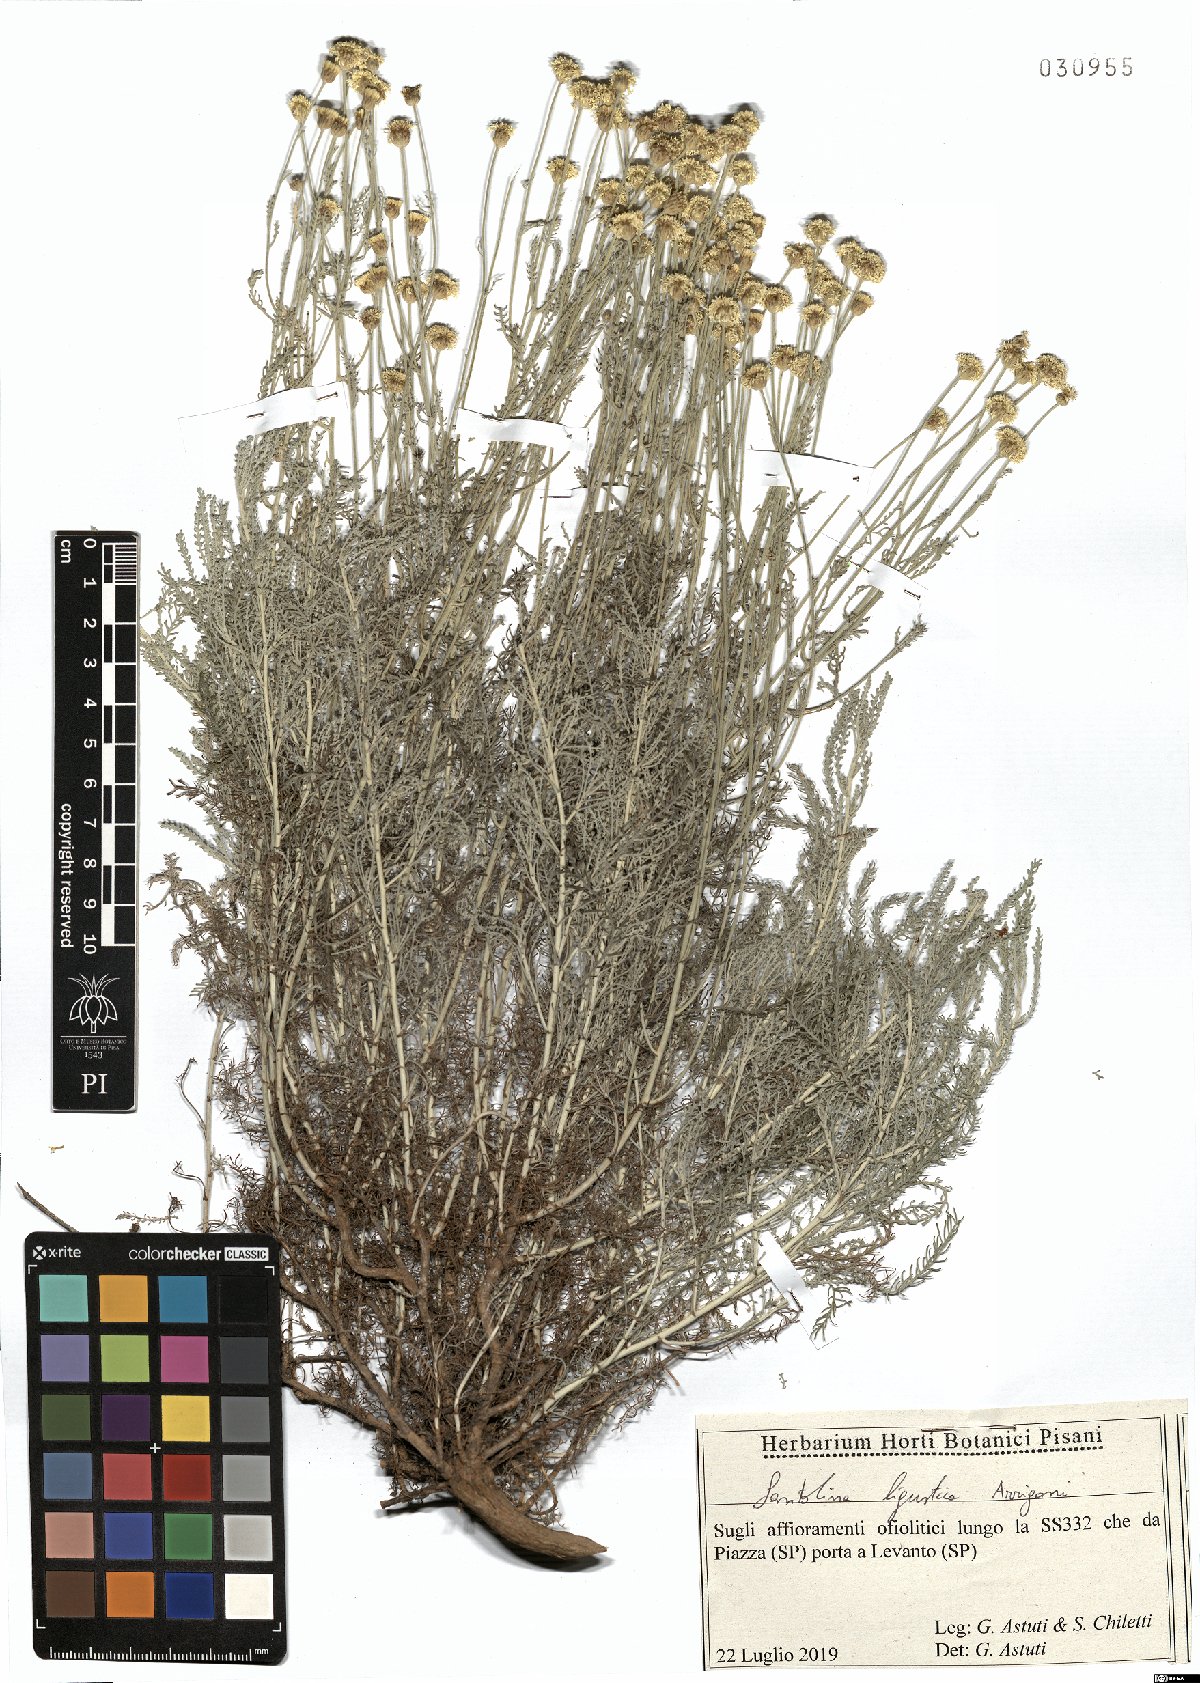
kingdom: Plantae
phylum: Tracheophyta
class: Magnoliopsida
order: Asterales
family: Asteraceae
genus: Santolina
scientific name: Santolina ligustica
